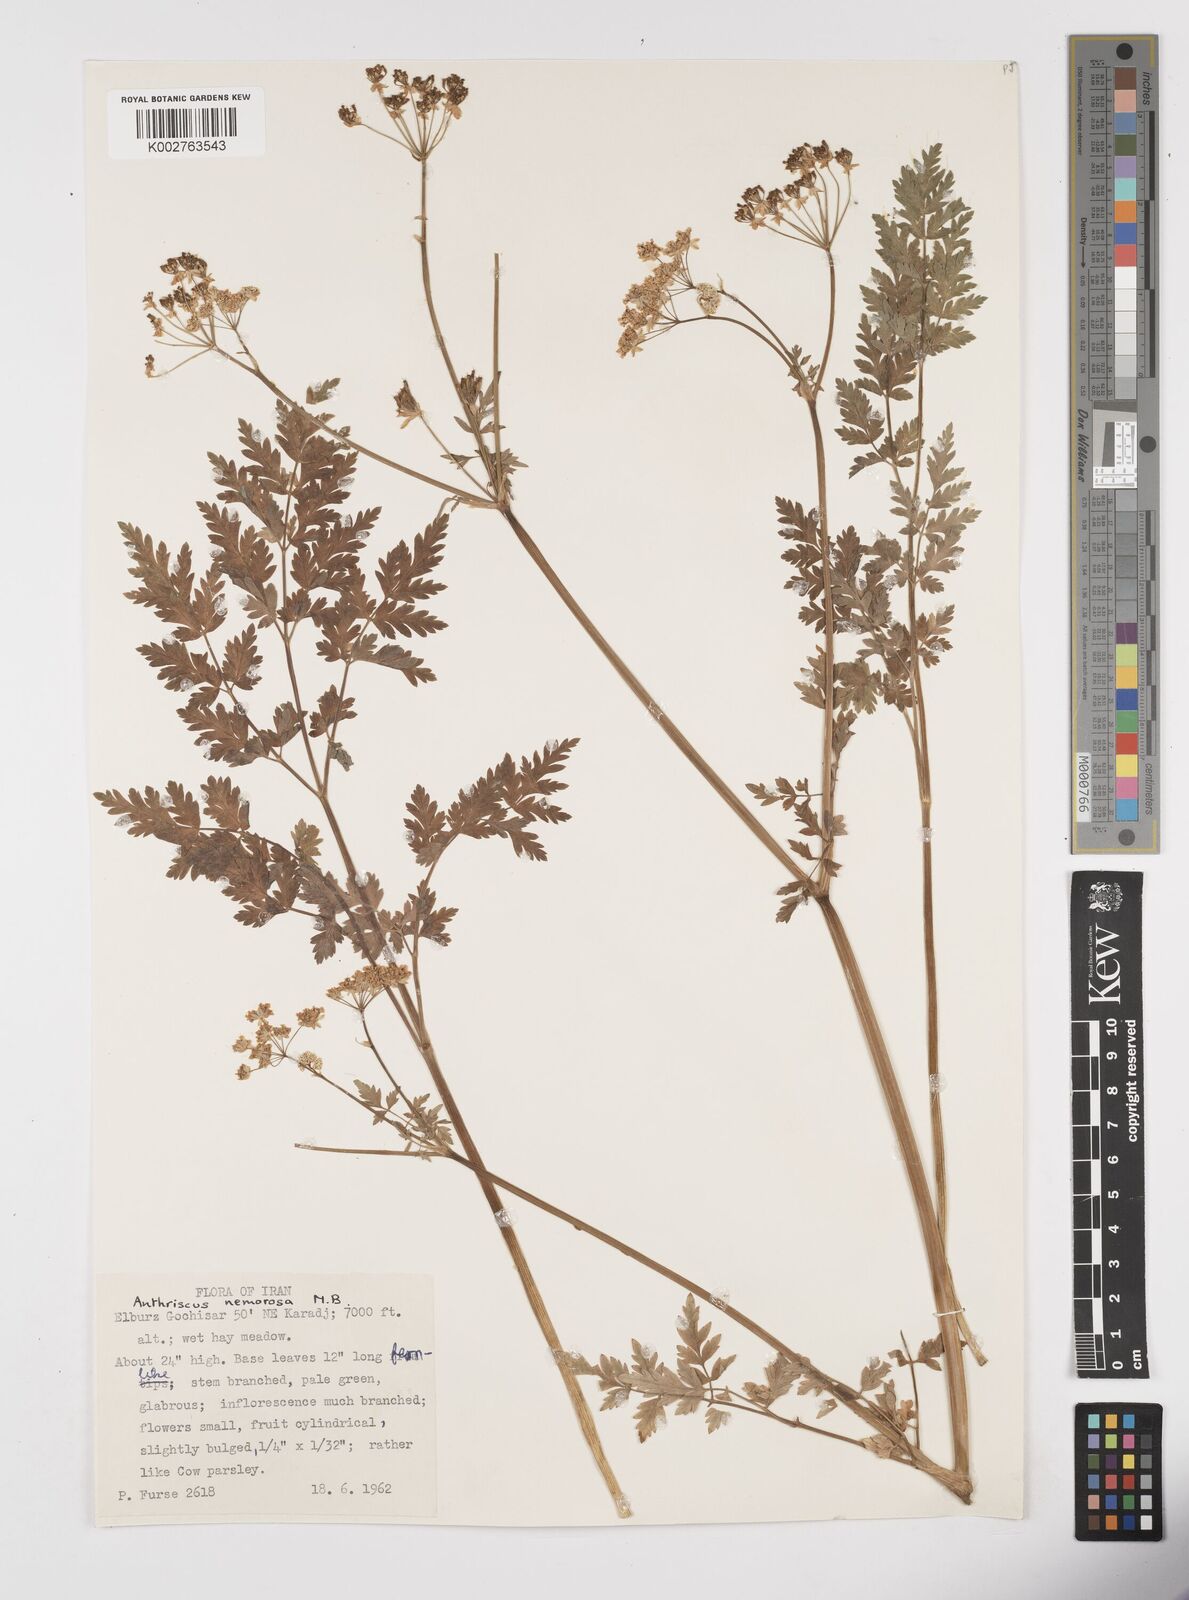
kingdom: Plantae
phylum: Tracheophyta
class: Magnoliopsida
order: Apiales
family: Apiaceae
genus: Anthriscus
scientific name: Anthriscus sylvestris
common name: Cow parsley
